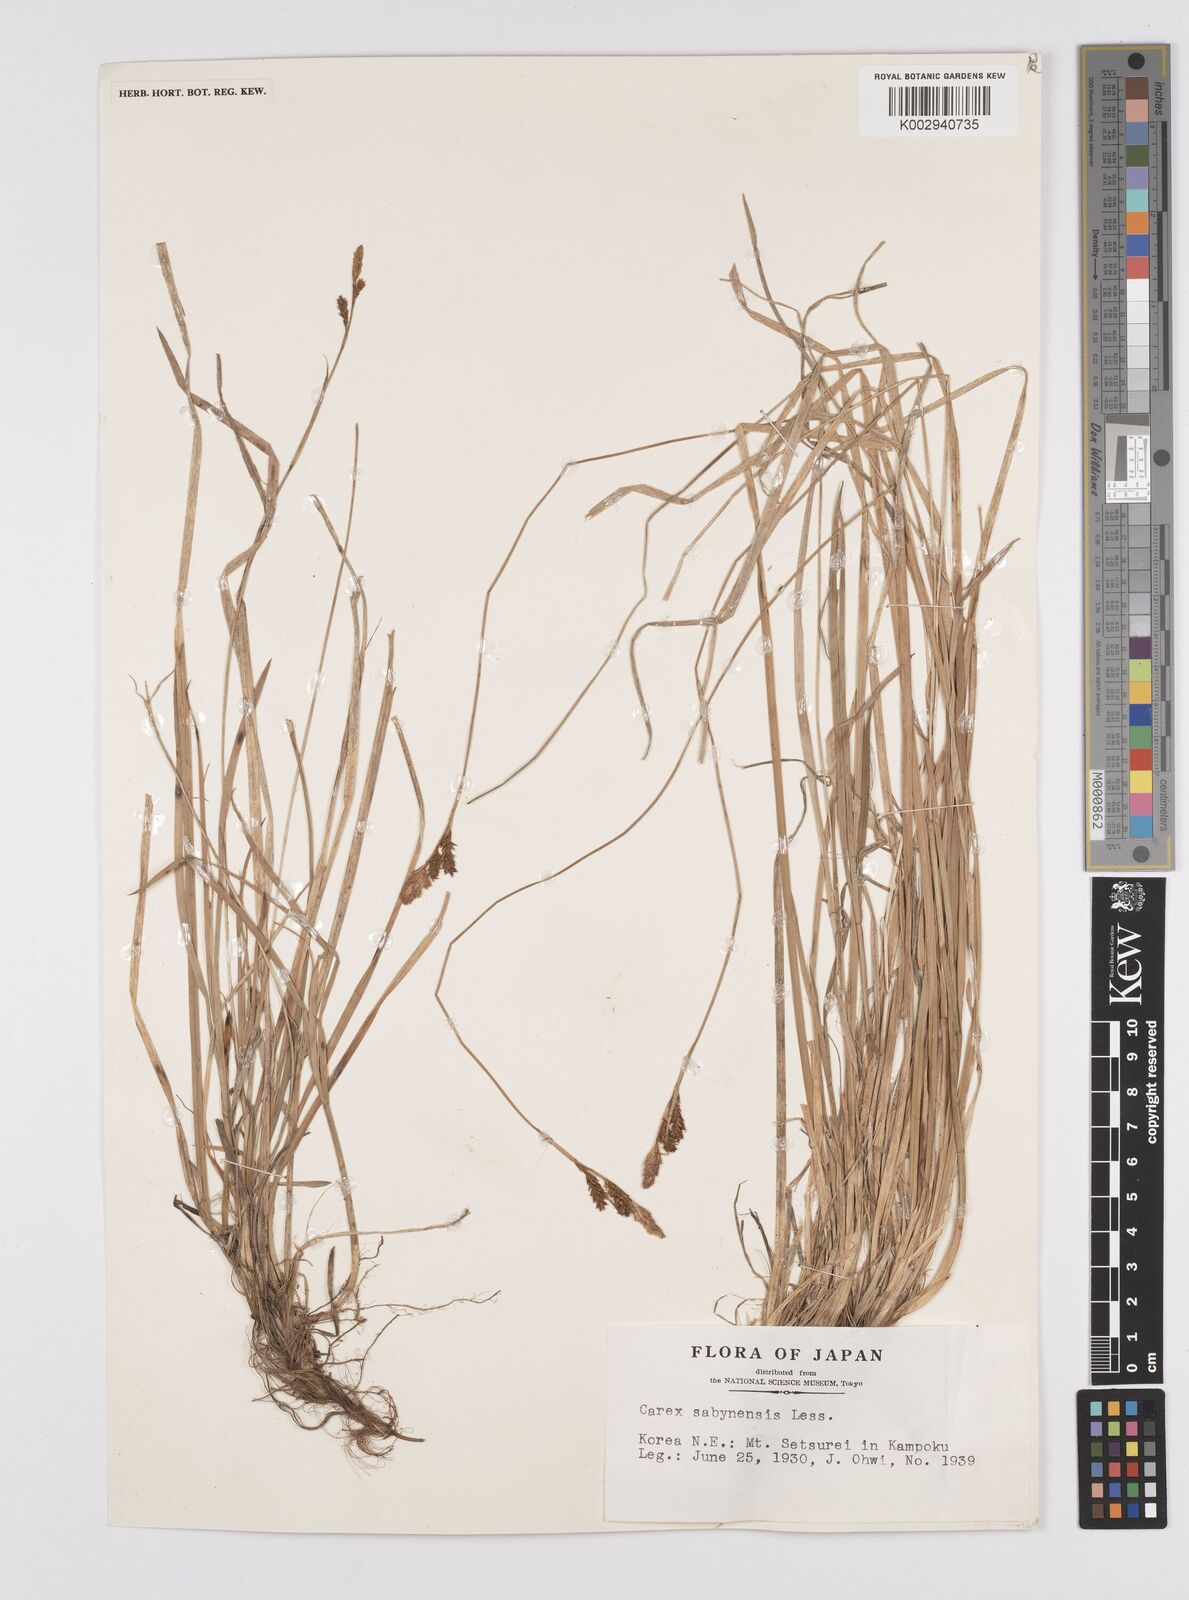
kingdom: Plantae
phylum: Tracheophyta
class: Liliopsida
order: Poales
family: Cyperaceae
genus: Carex
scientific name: Carex umbrosa
